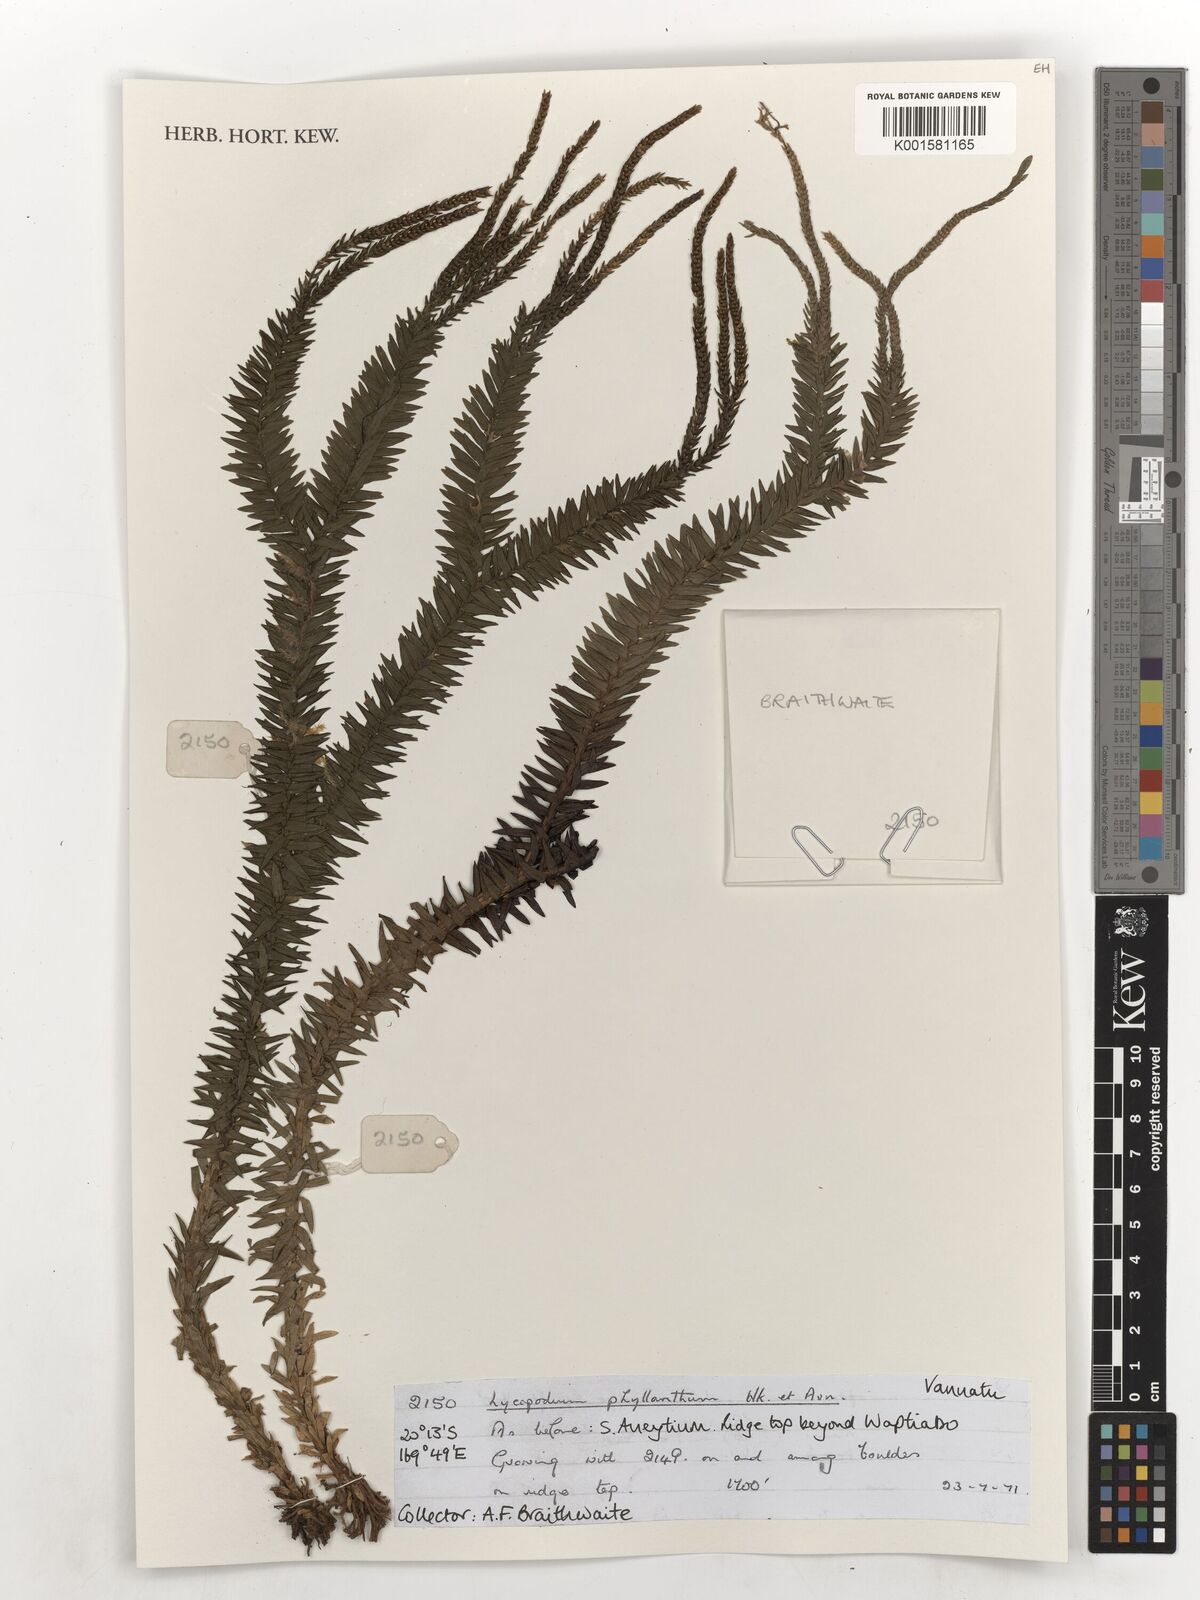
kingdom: Plantae
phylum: Tracheophyta
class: Lycopodiopsida
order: Lycopodiales
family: Lycopodiaceae
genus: Phlegmariurus
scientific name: Phlegmariurus phyllanthus
